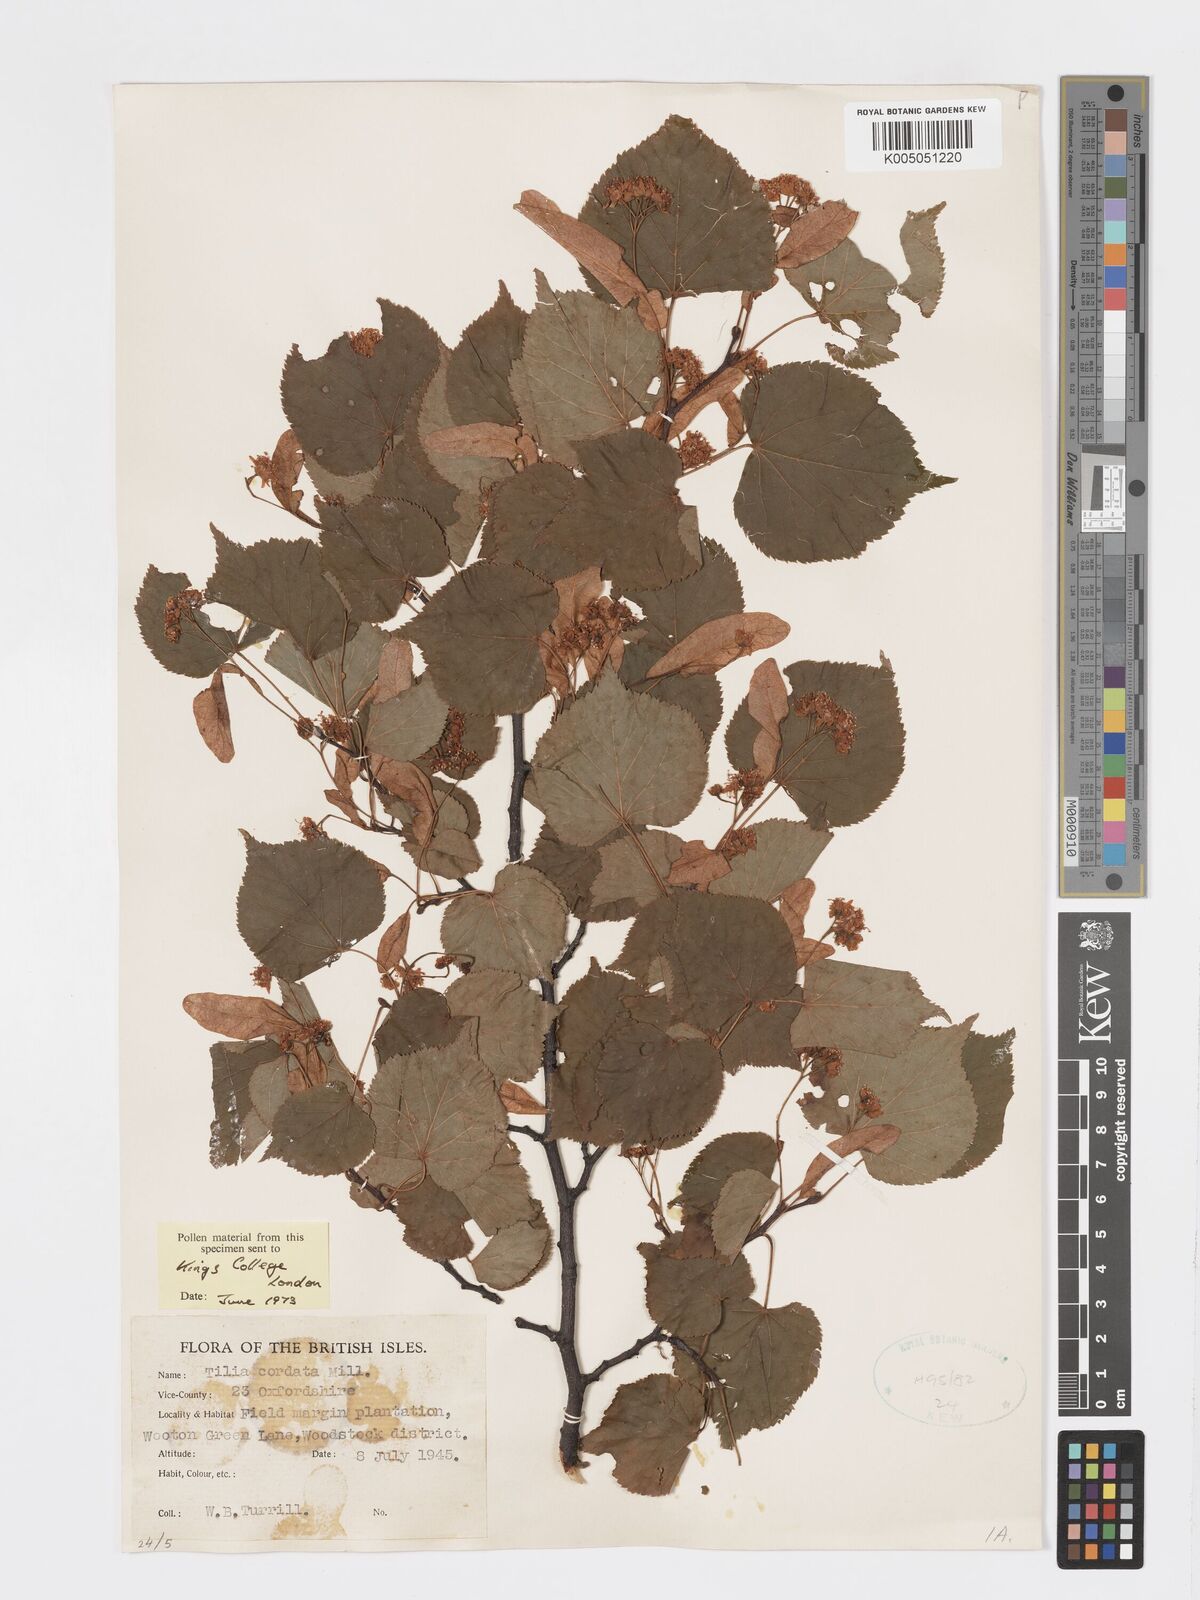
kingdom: Plantae
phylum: Tracheophyta
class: Magnoliopsida
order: Malvales
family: Malvaceae
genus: Tilia
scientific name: Tilia cordata
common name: Small-leaved lime
